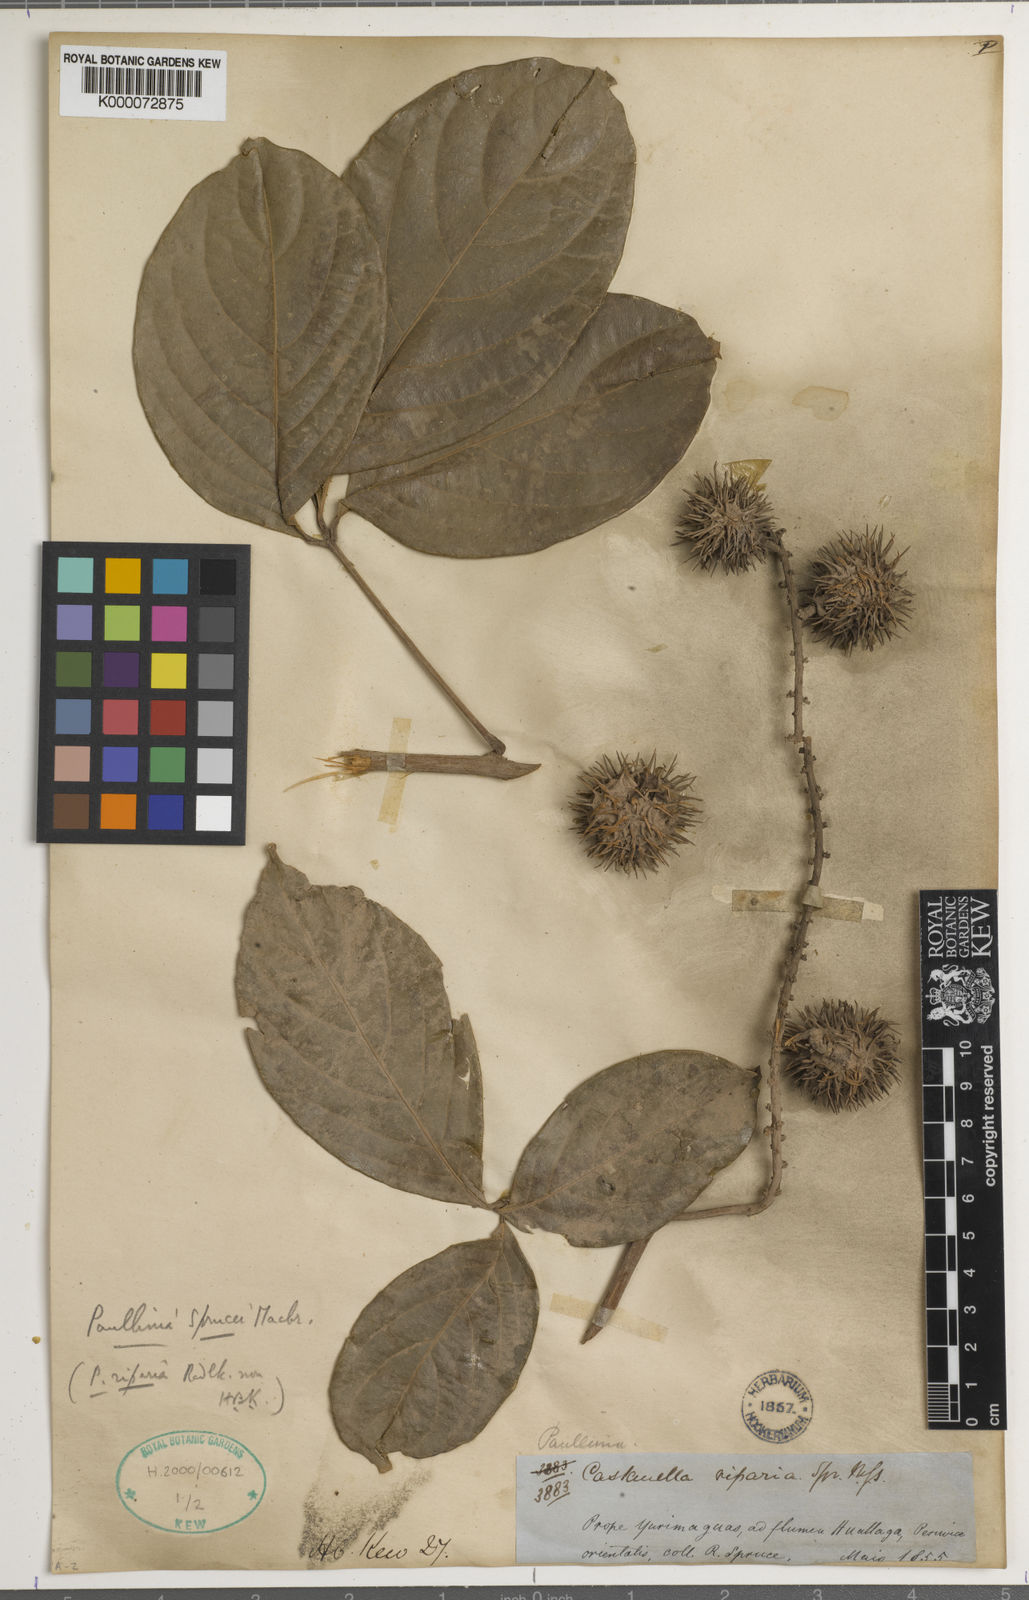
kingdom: Plantae
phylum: Tracheophyta
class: Magnoliopsida
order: Sapindales
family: Sapindaceae
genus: Paullinia
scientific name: Paullinia sprucei
